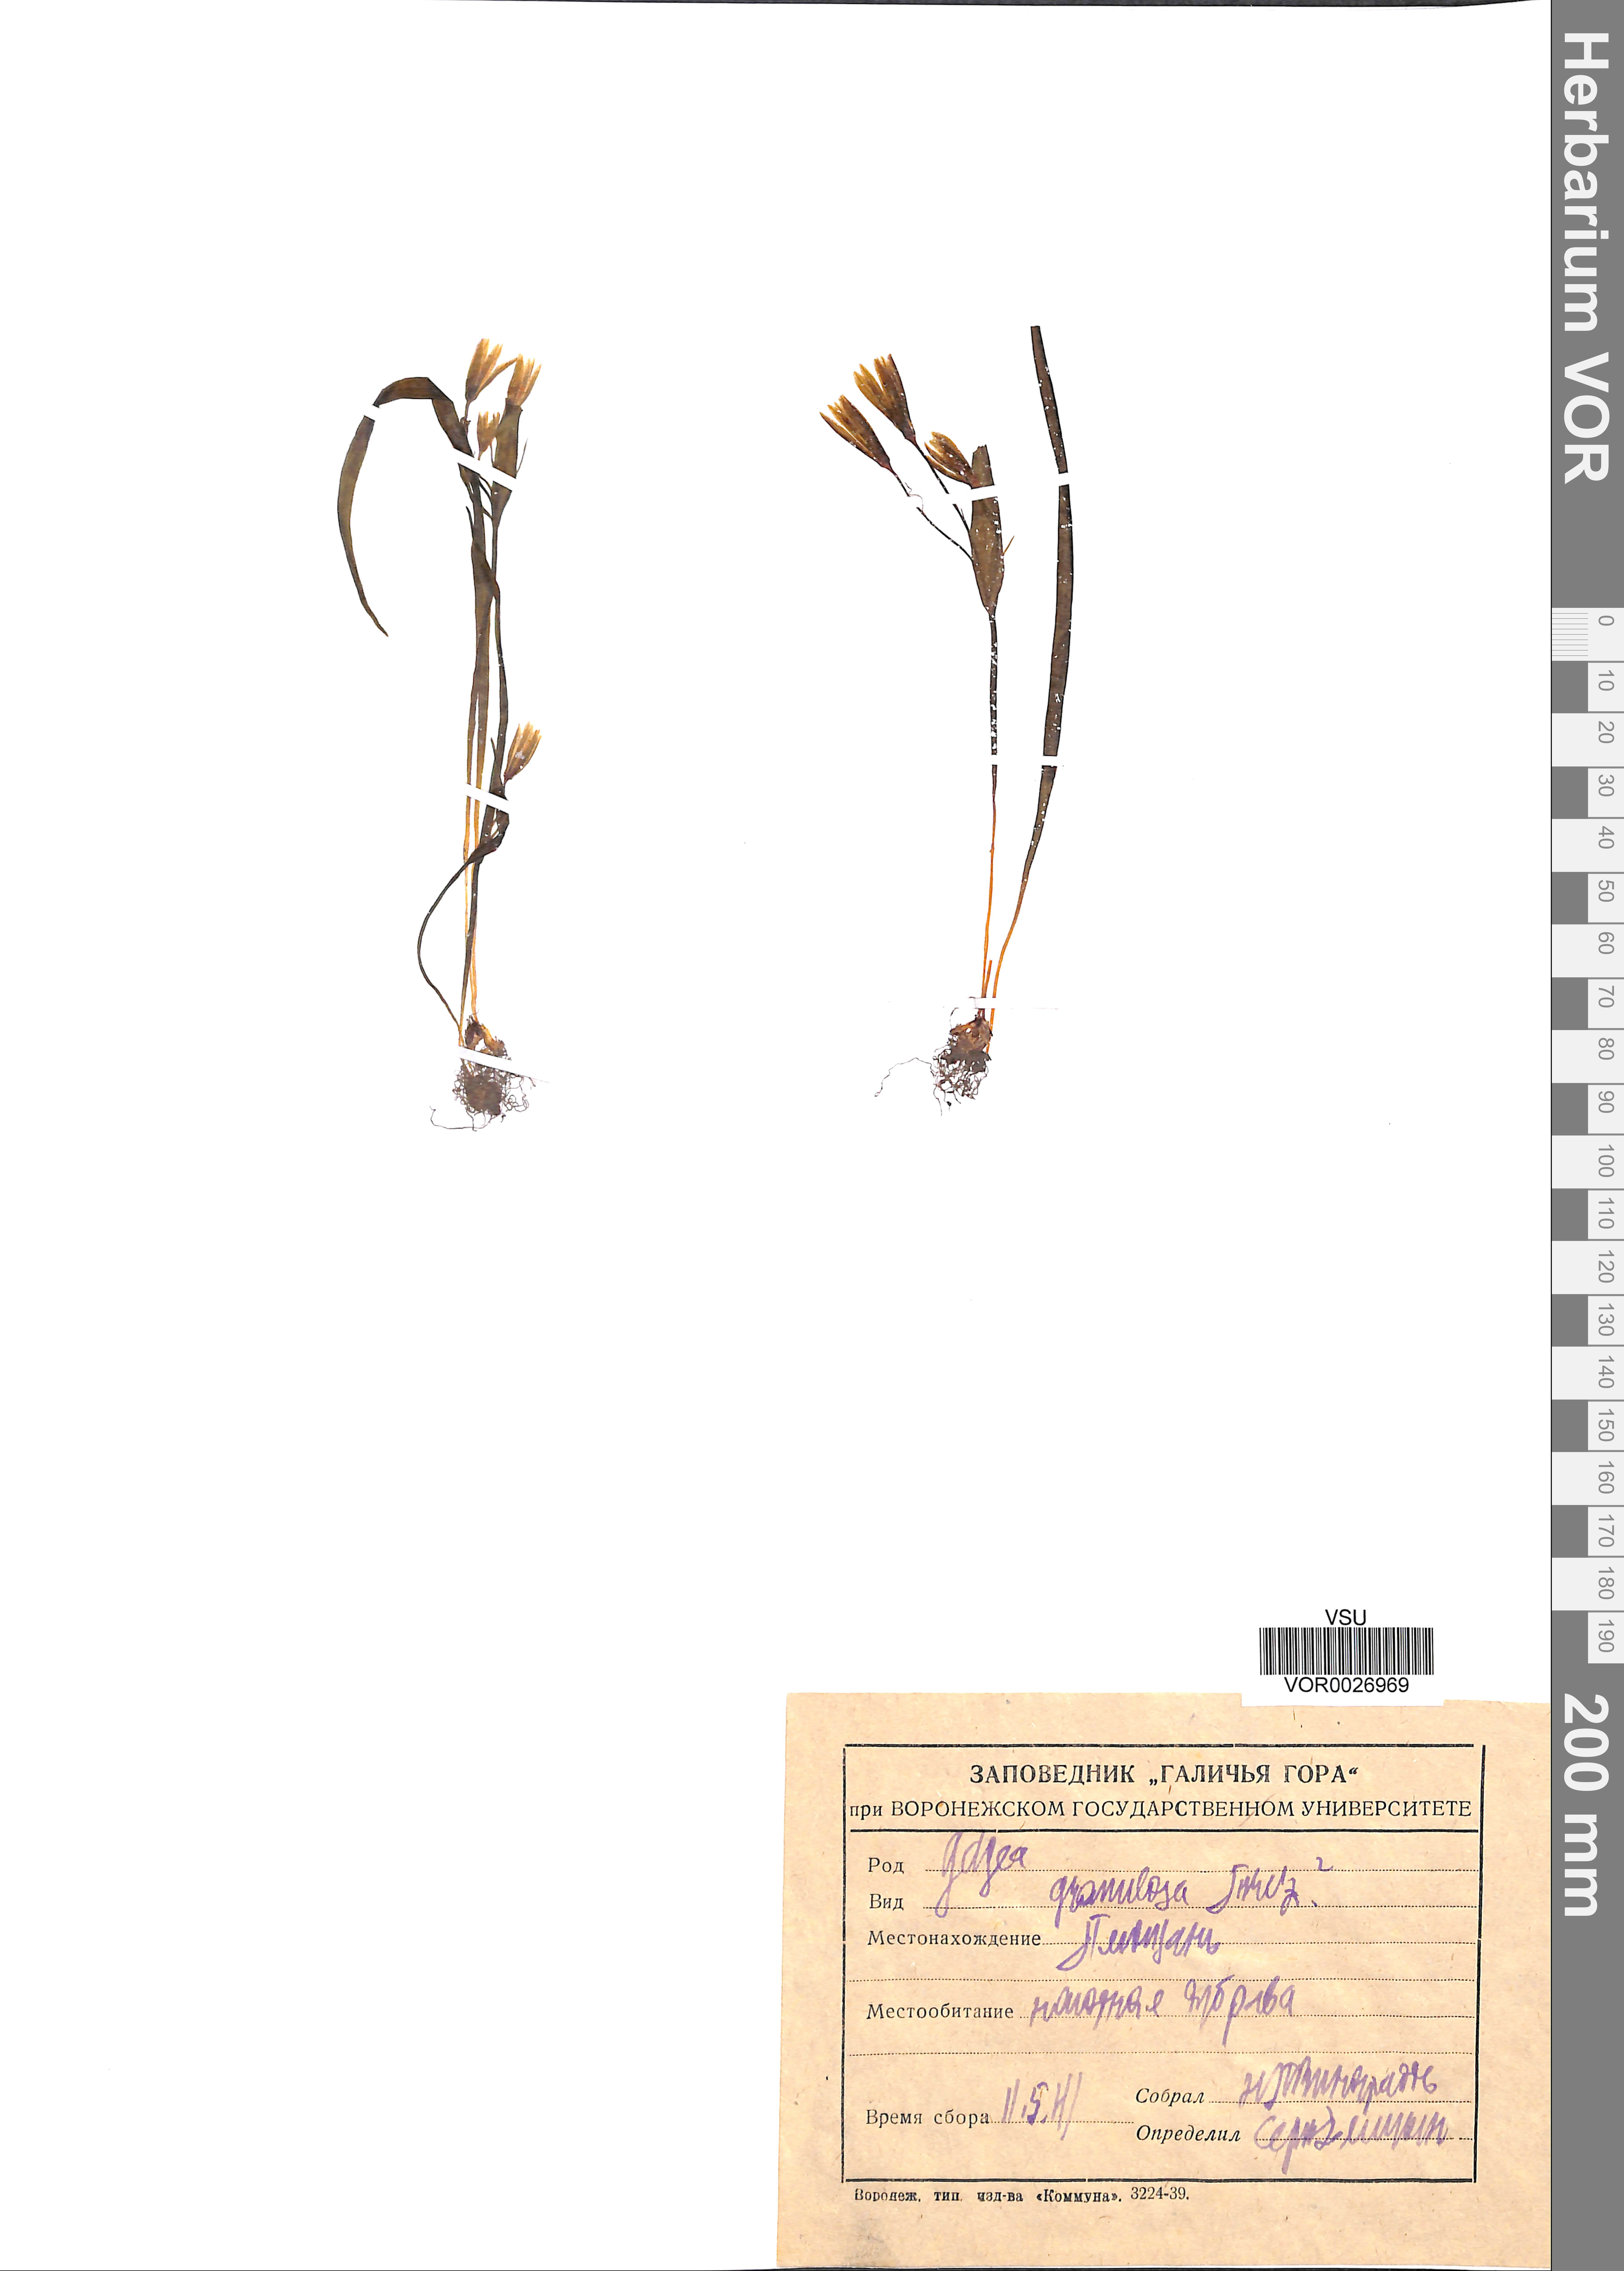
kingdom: Plantae
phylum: Tracheophyta
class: Liliopsida
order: Liliales
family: Liliaceae
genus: Gagea
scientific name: Gagea granulosa
